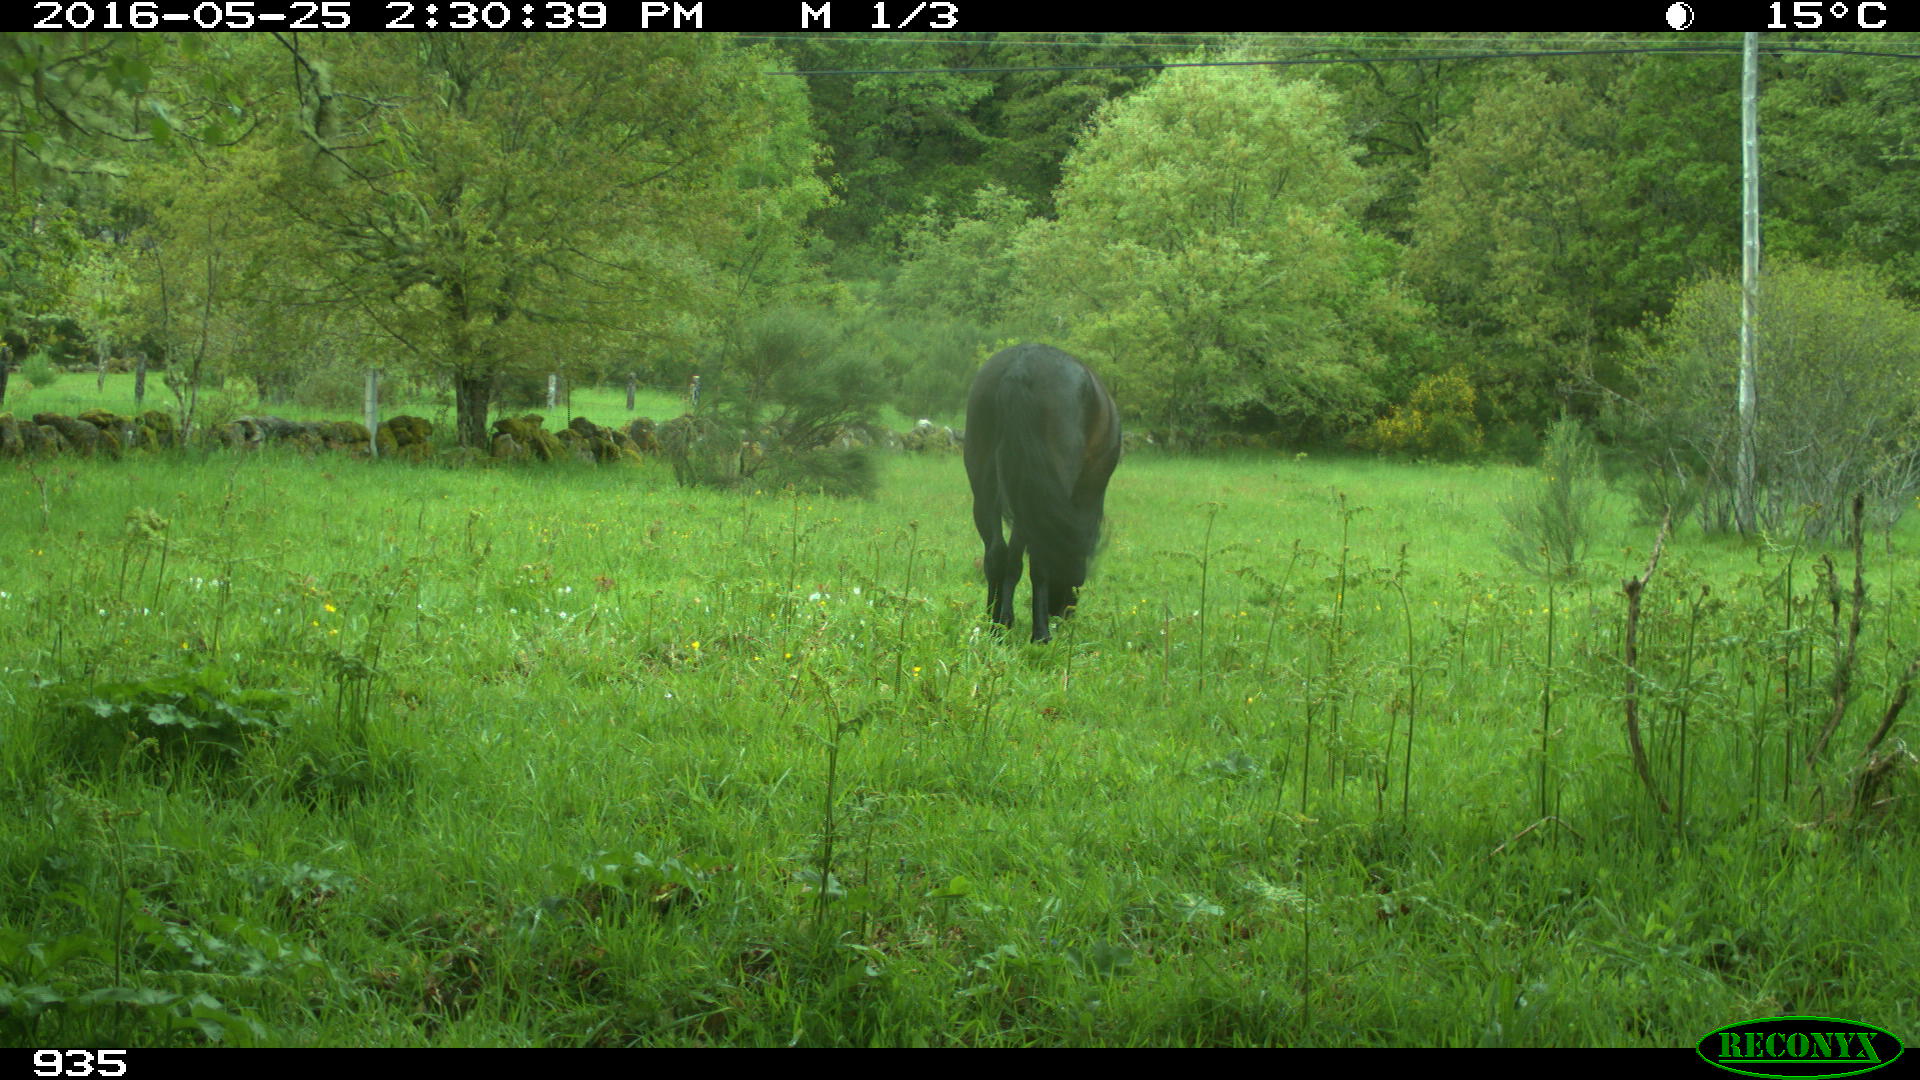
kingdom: Animalia
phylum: Chordata
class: Mammalia
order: Perissodactyla
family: Equidae
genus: Equus
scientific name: Equus caballus
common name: Horse
